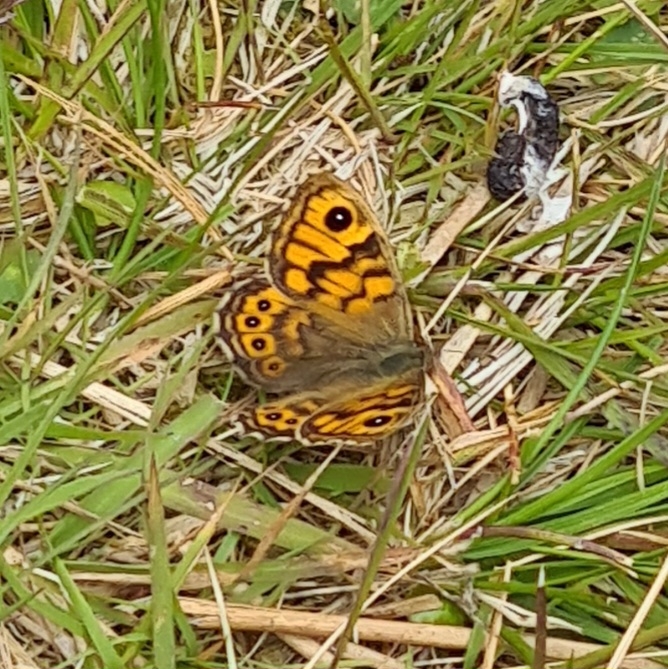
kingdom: Animalia
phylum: Arthropoda
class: Insecta
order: Lepidoptera
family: Nymphalidae
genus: Pararge
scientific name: Pararge Lasiommata megera
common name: Vejrandøje
